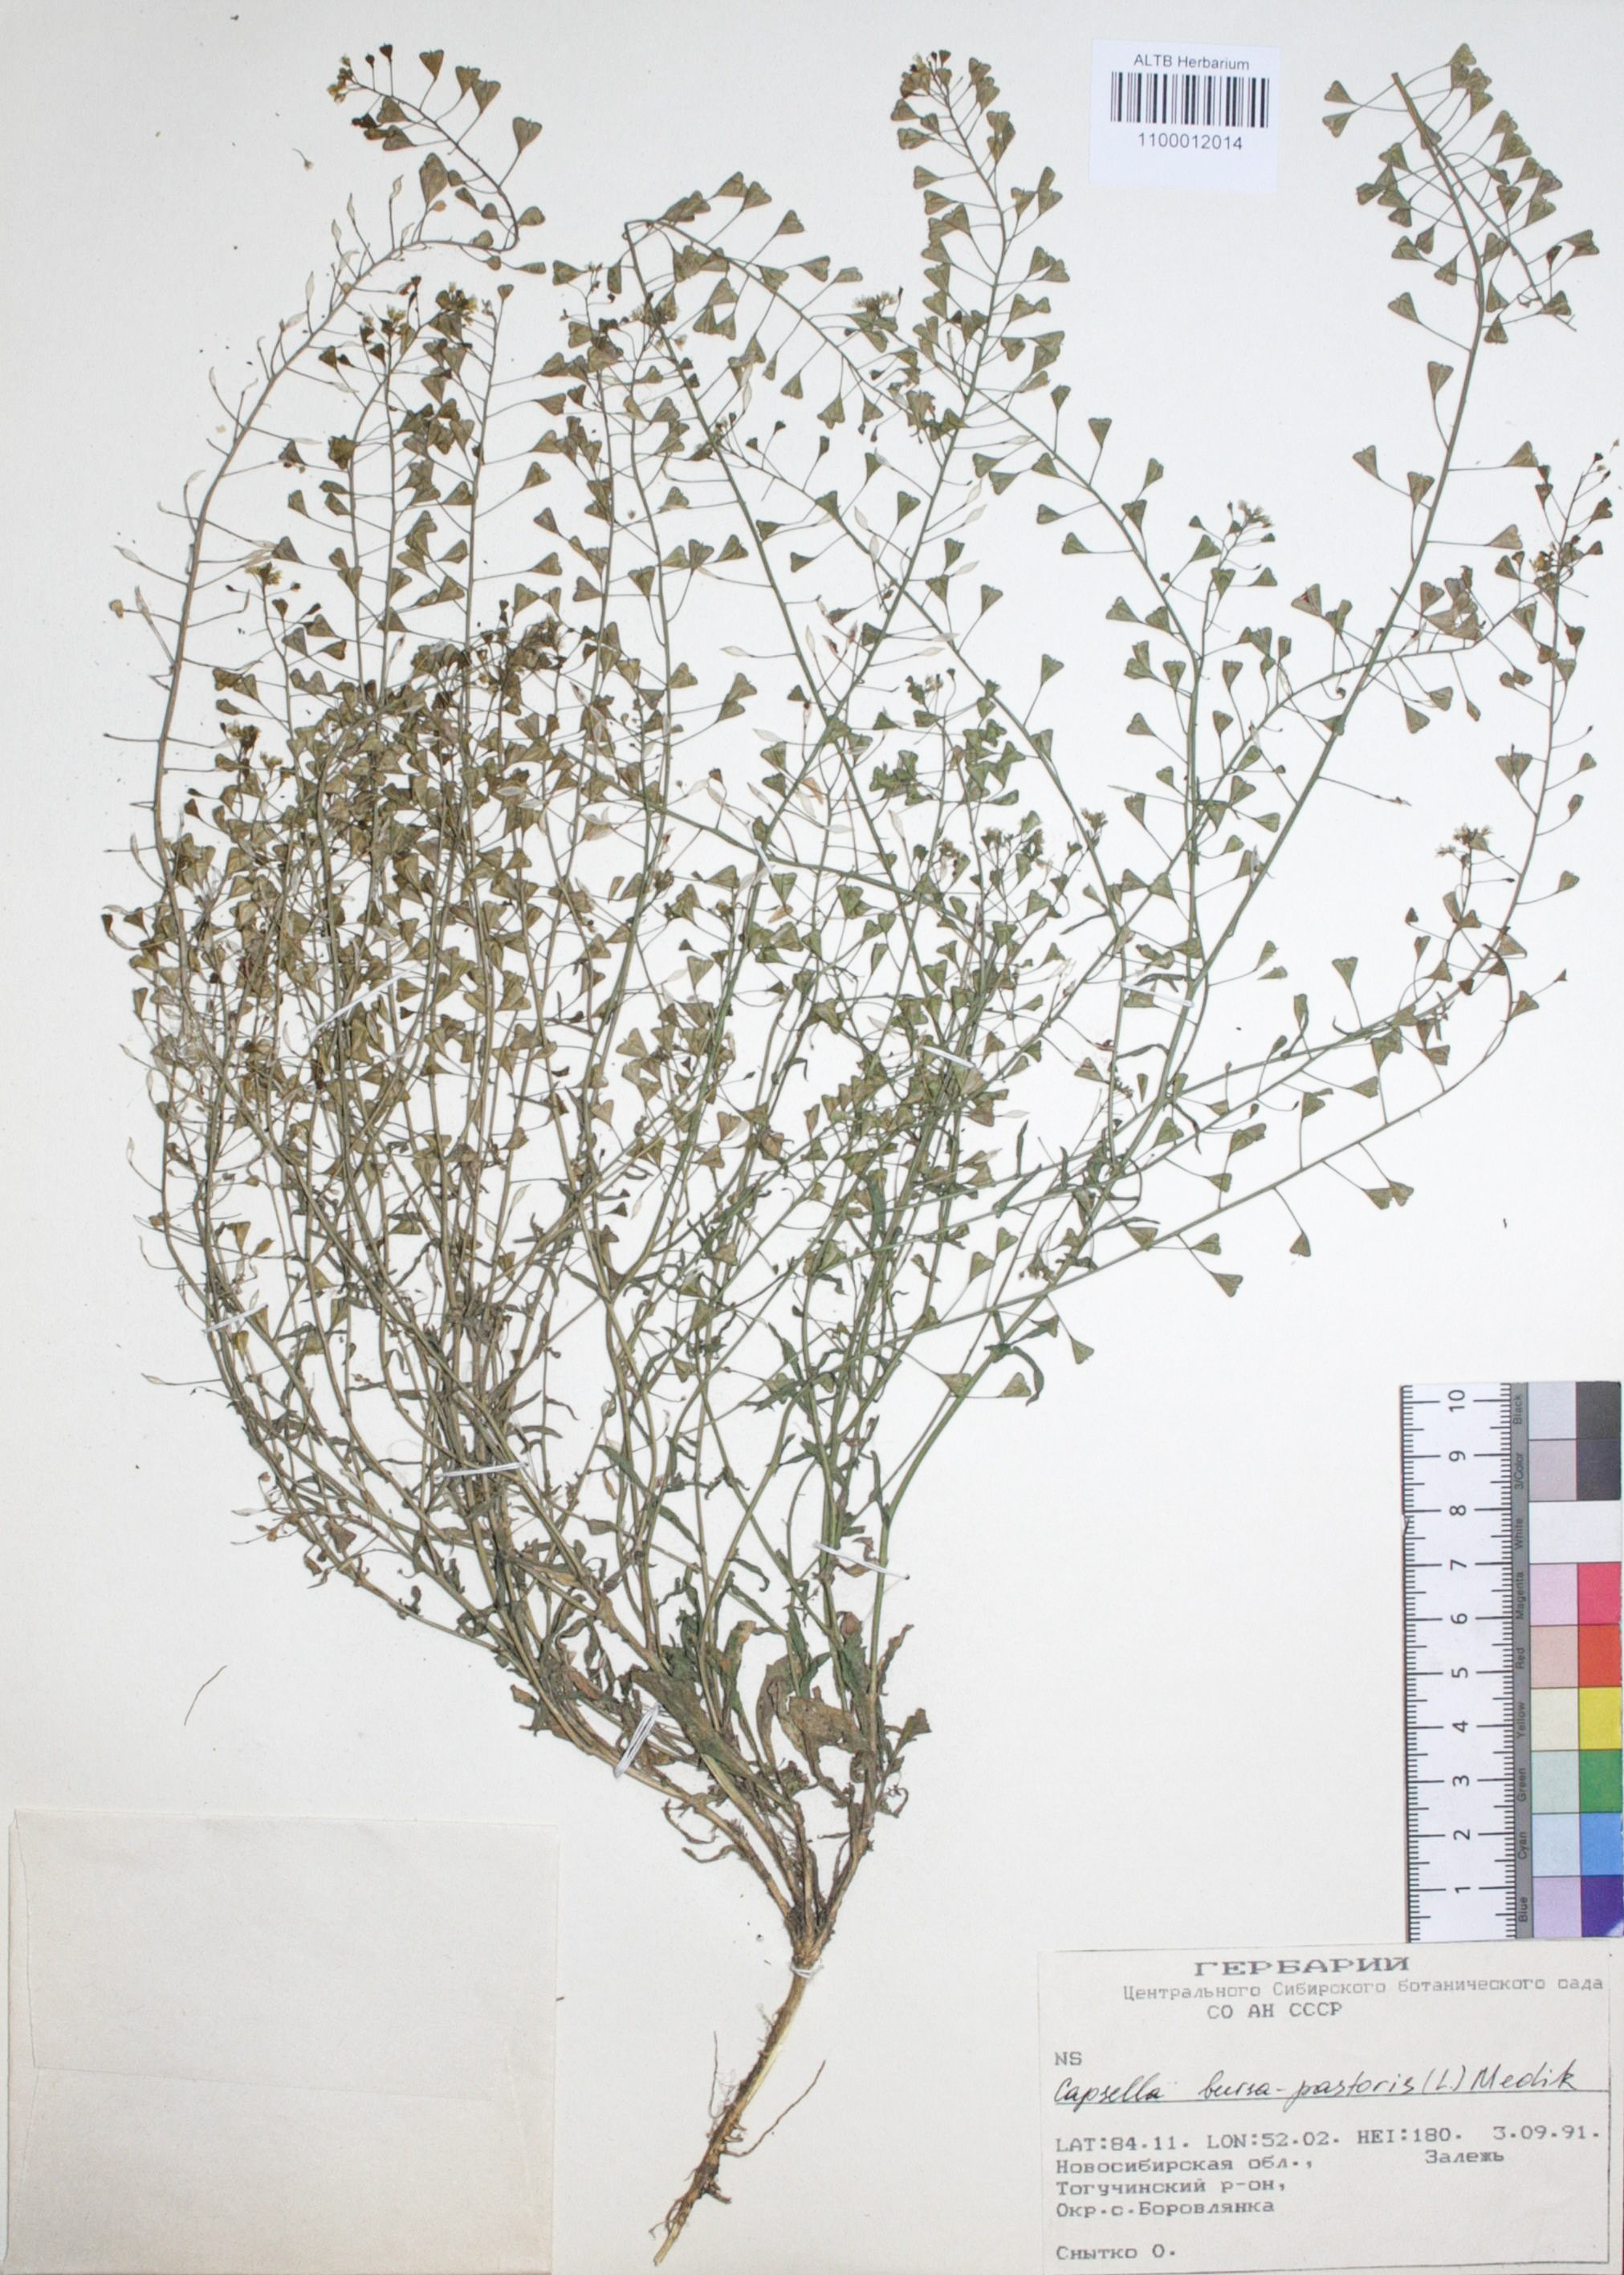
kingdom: Plantae
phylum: Tracheophyta
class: Magnoliopsida
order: Brassicales
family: Brassicaceae
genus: Capsella
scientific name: Capsella bursa-pastoris
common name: Shepherd's purse
